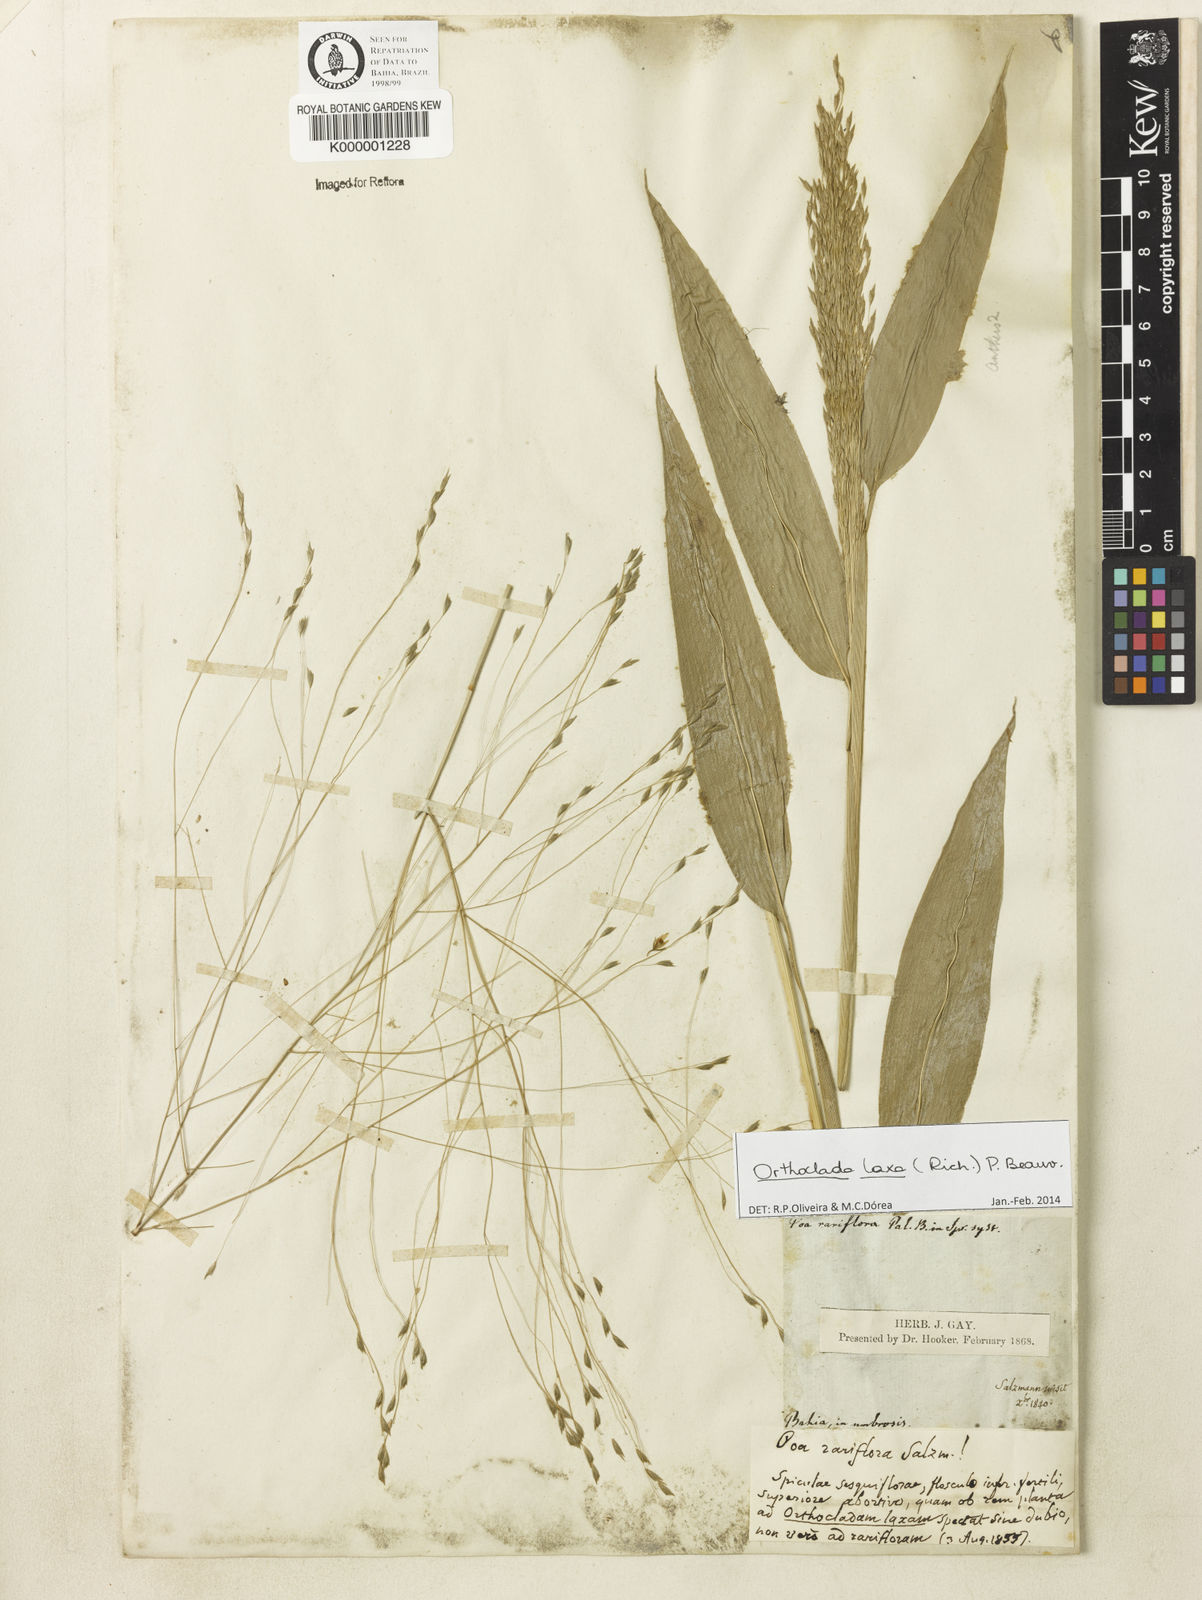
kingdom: Plantae
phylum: Tracheophyta
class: Liliopsida
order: Poales
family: Poaceae
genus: Orthoclada
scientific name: Orthoclada laxa
